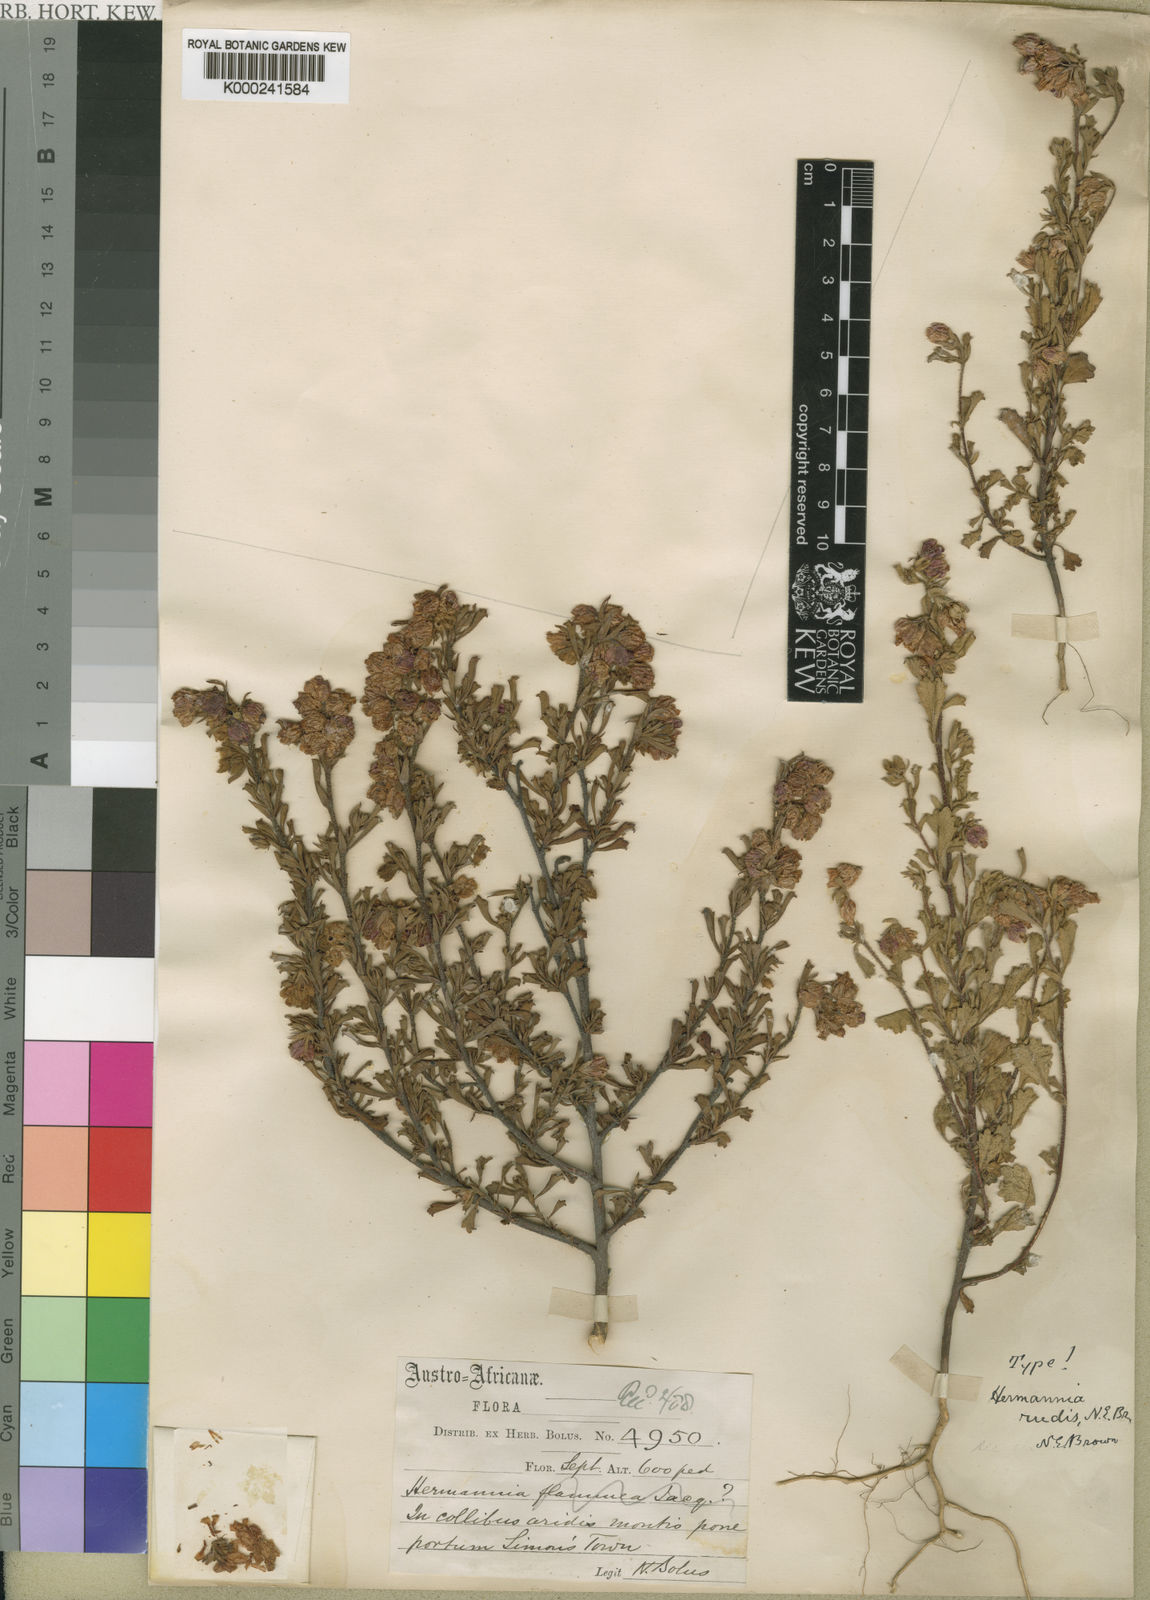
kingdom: Plantae
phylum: Tracheophyta
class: Magnoliopsida
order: Malvales
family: Malvaceae
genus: Hermannia
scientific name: Hermannia rudis
